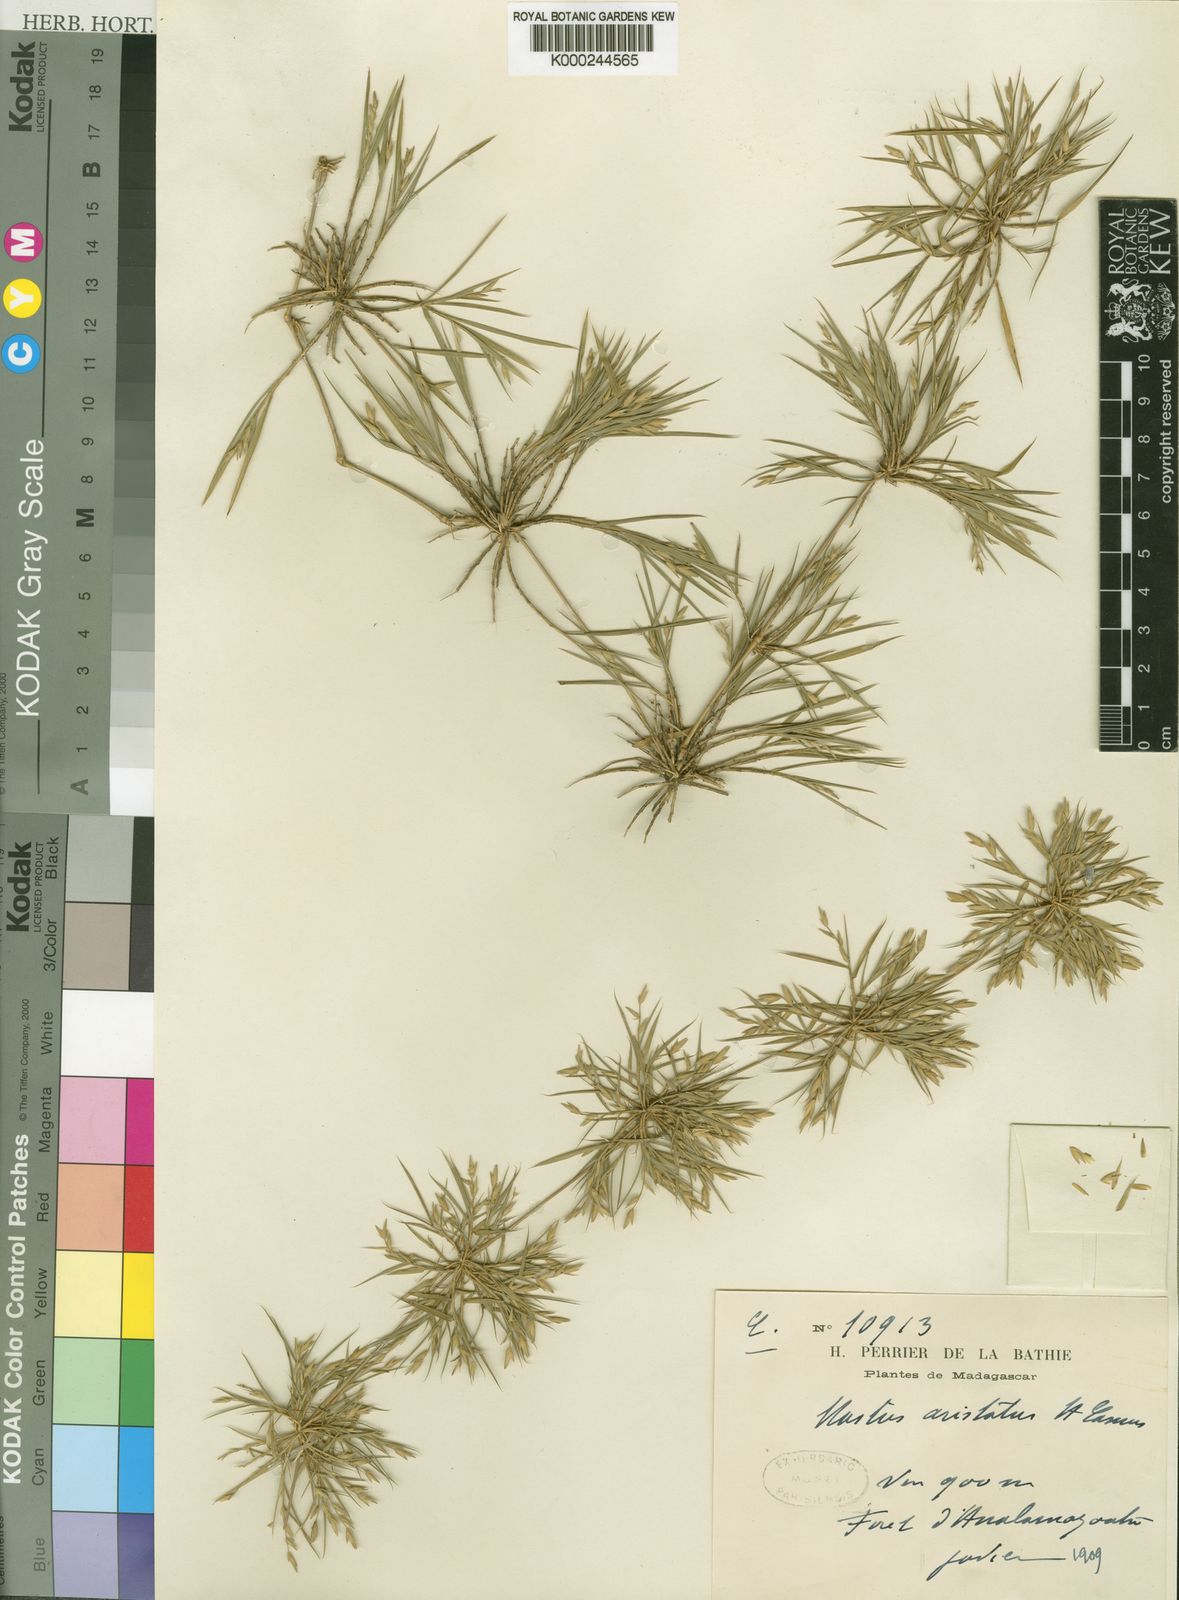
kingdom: Plantae
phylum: Tracheophyta
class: Liliopsida
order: Poales
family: Poaceae
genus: Nastus
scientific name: Nastus aristatus
